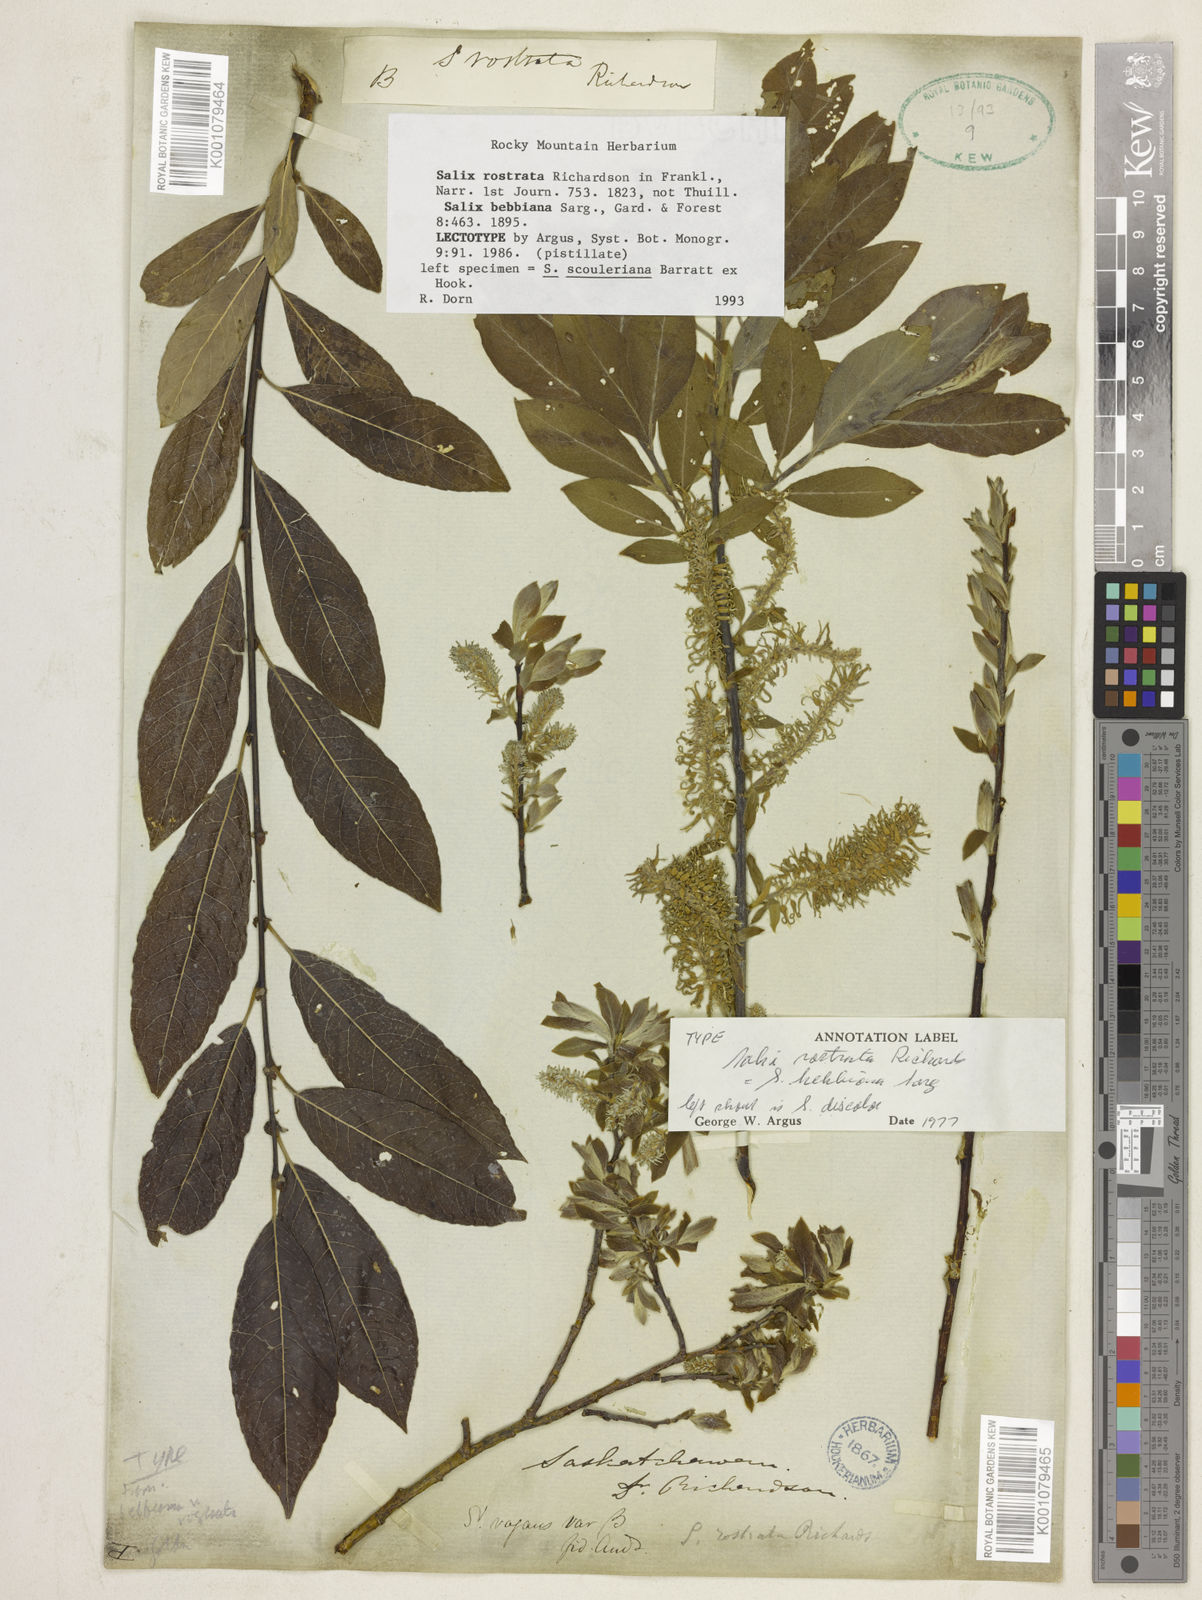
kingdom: Plantae
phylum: Tracheophyta
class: Magnoliopsida
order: Malpighiales
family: Salicaceae
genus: Salix
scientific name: Salix bebbiana
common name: Bebb's willow
